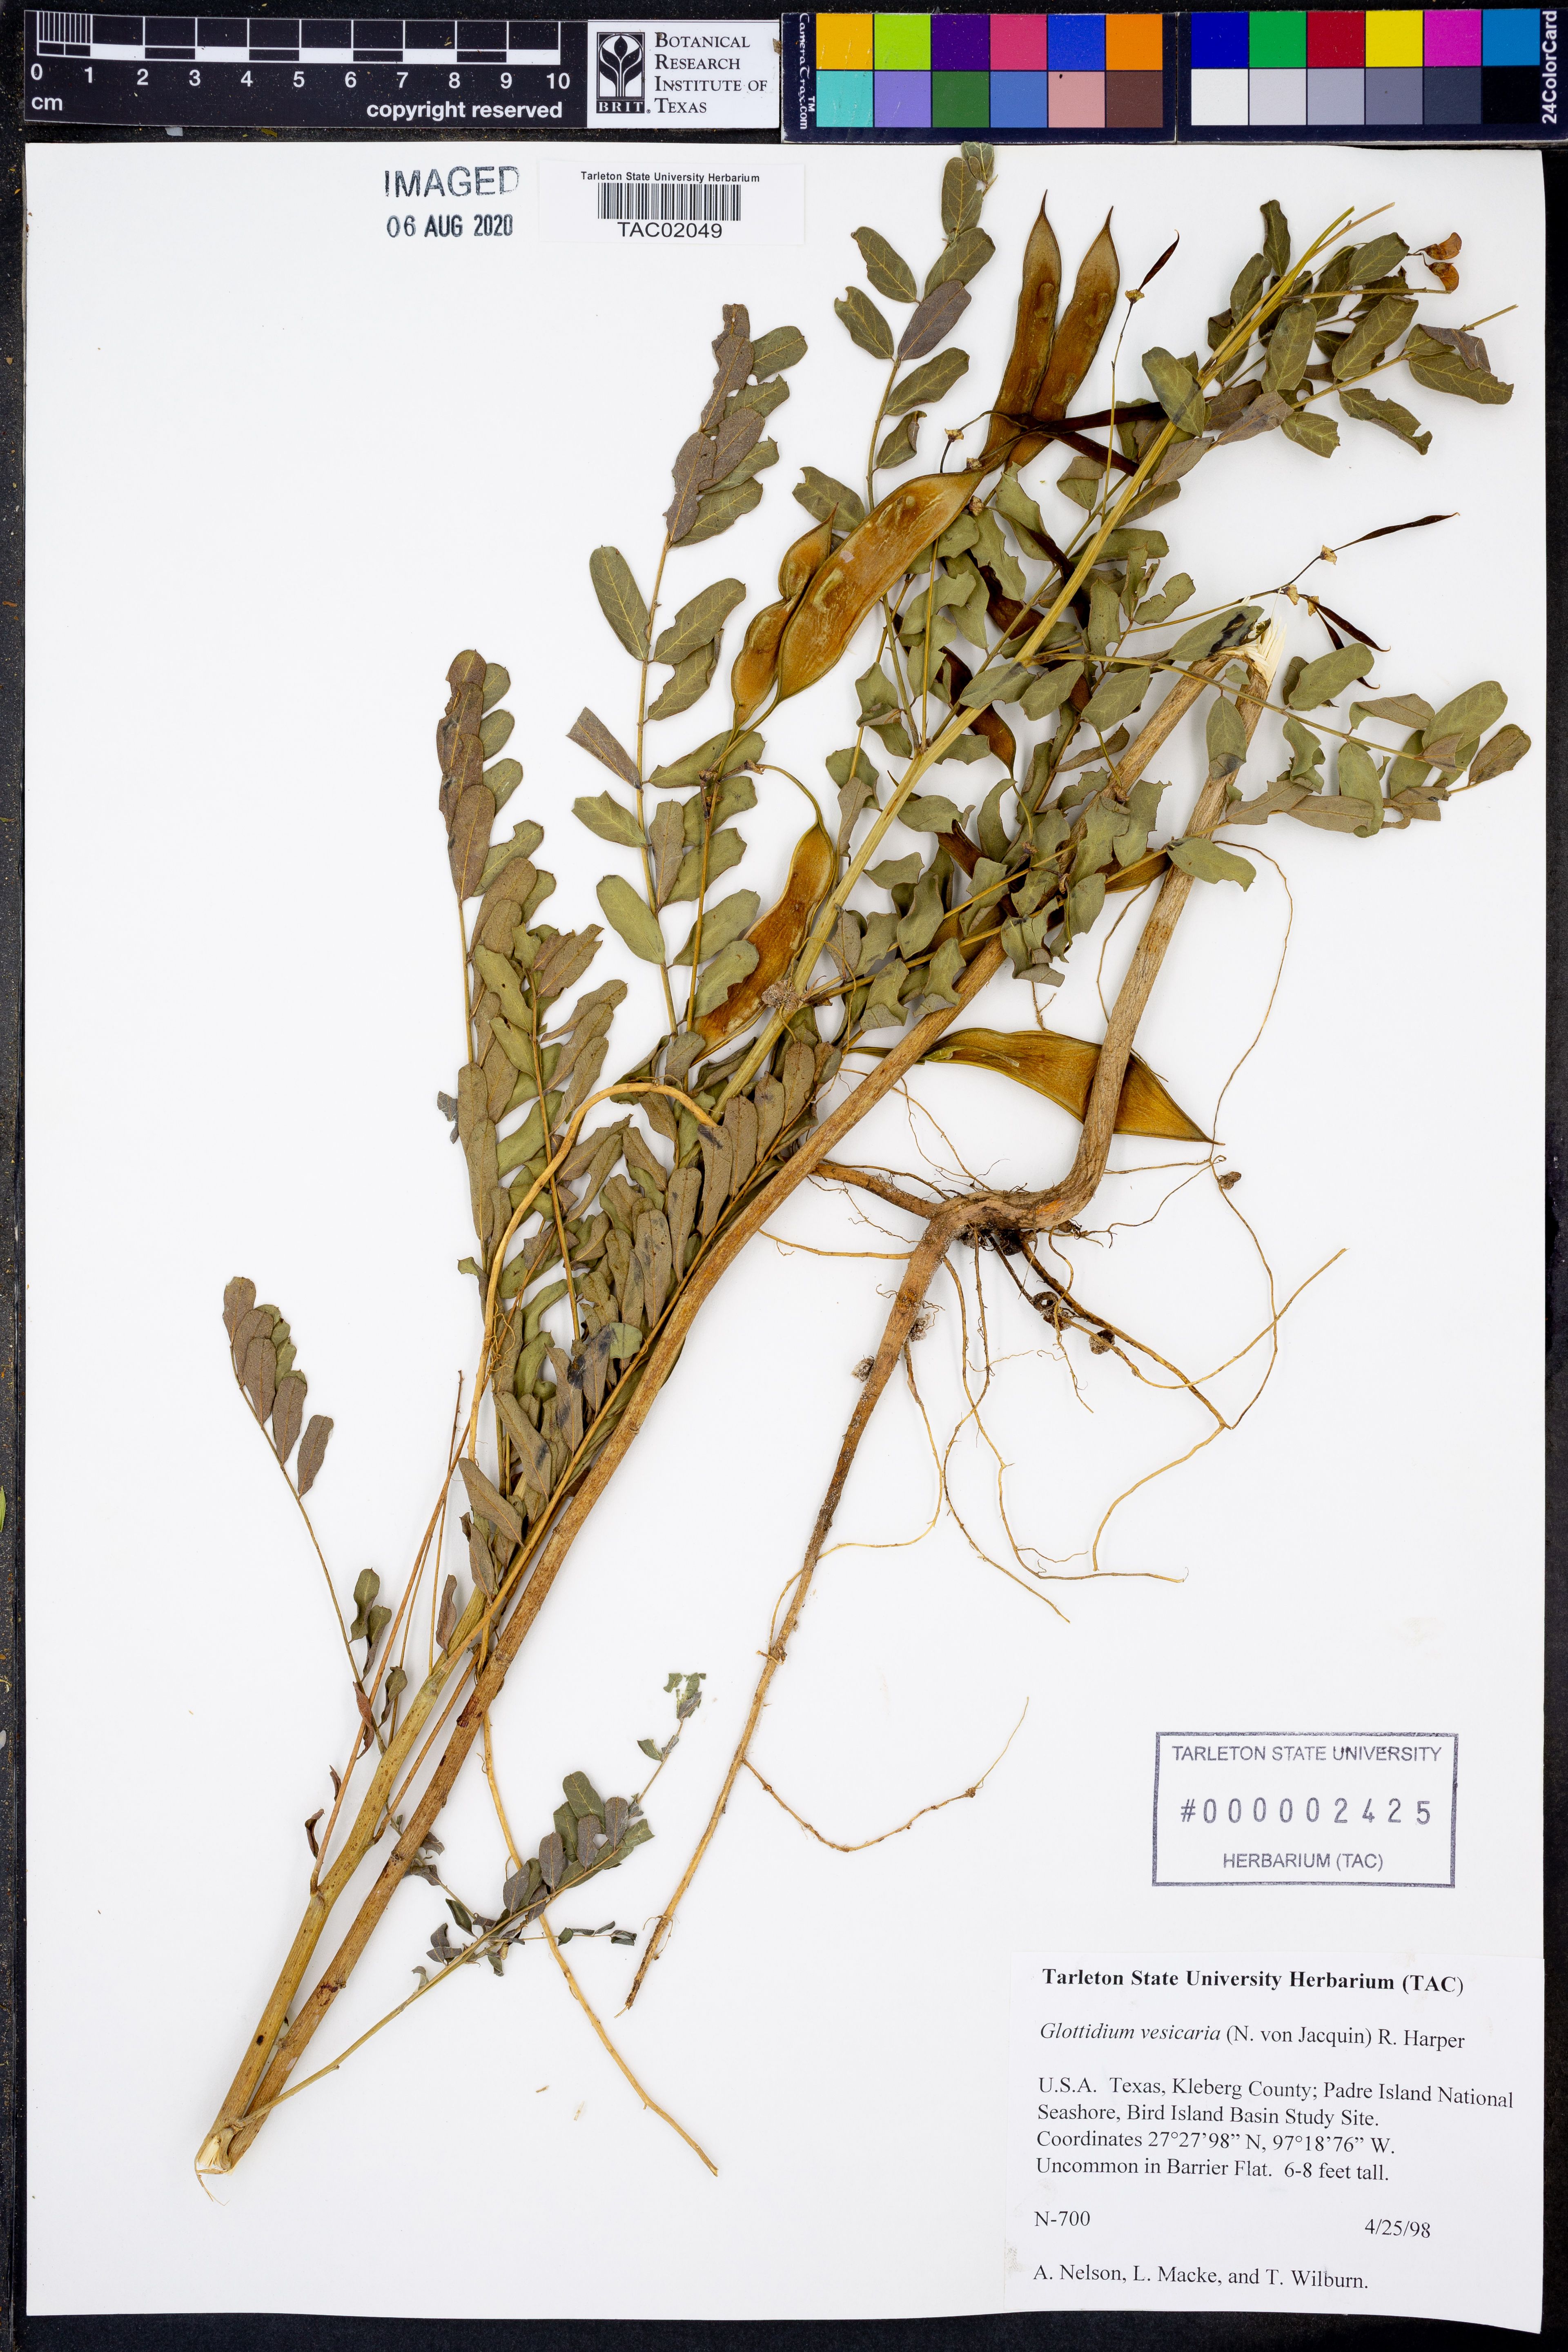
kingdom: Plantae
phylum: Tracheophyta
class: Magnoliopsida
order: Fabales
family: Fabaceae
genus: Sesbania
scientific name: Sesbania vesicaria
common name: Bagpod
